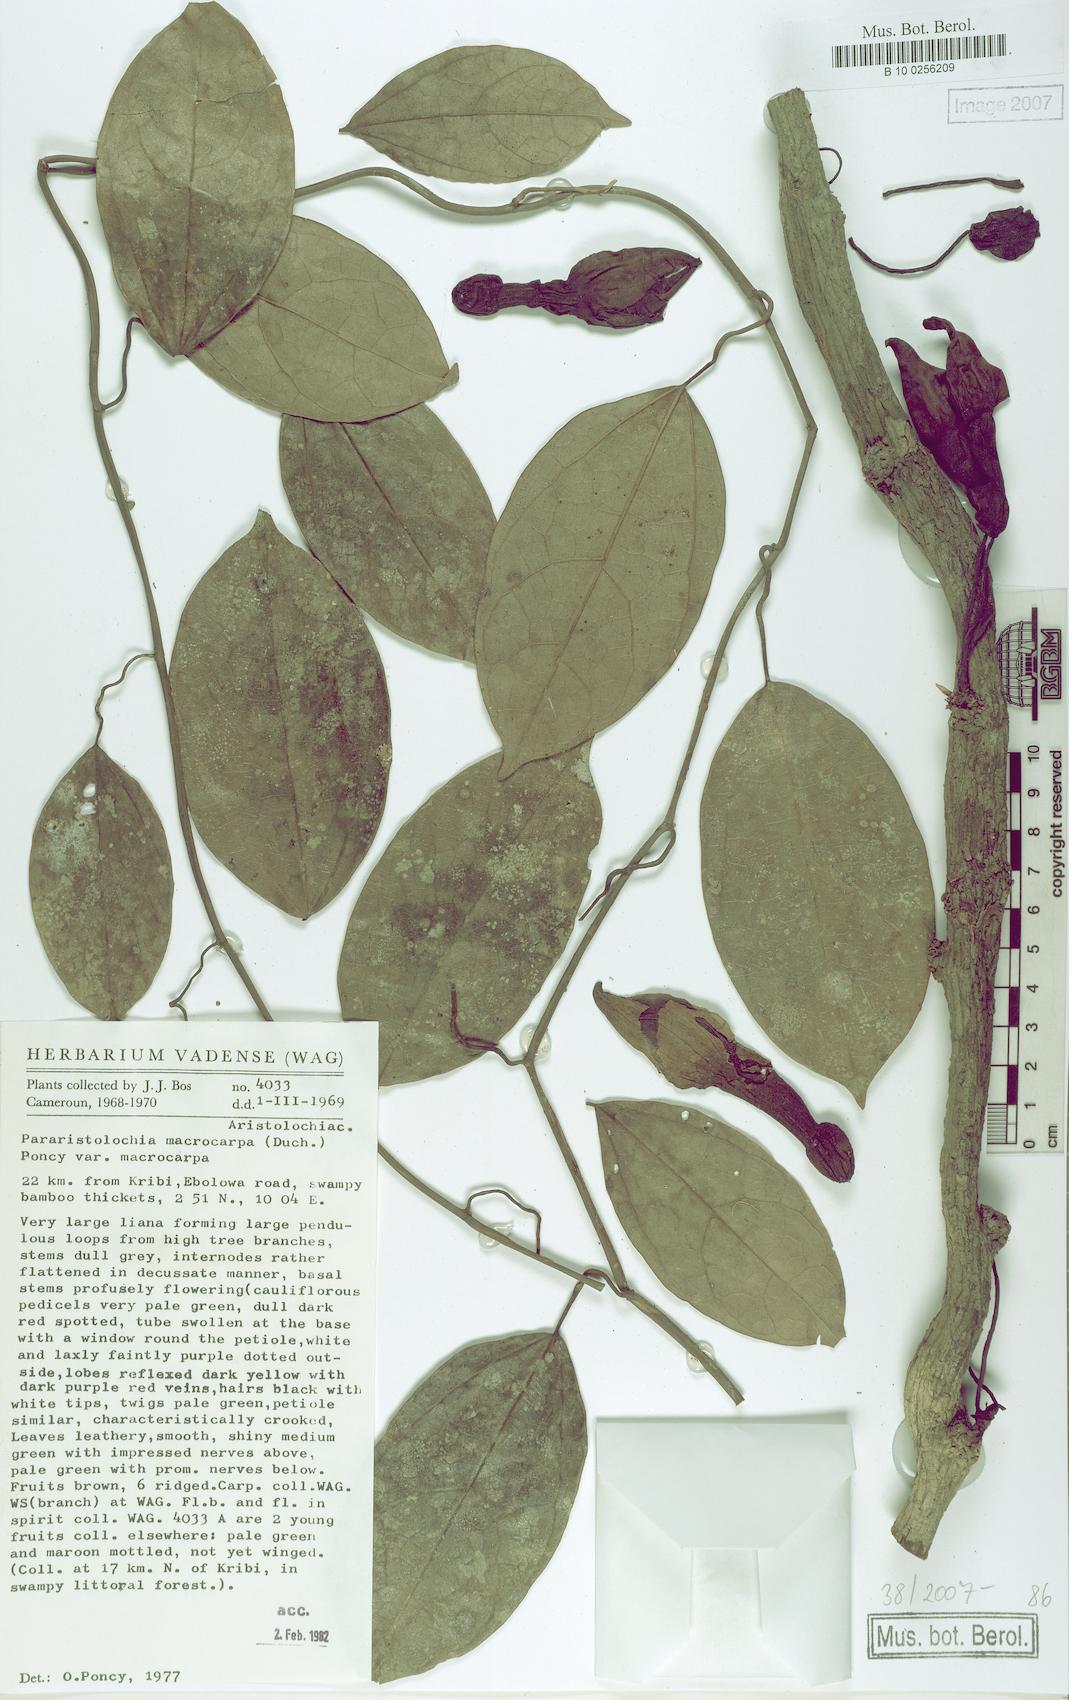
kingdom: Plantae
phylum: Tracheophyta
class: Magnoliopsida
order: Piperales
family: Aristolochiaceae
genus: Aristolochia
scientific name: Aristolochia macrocarpa
